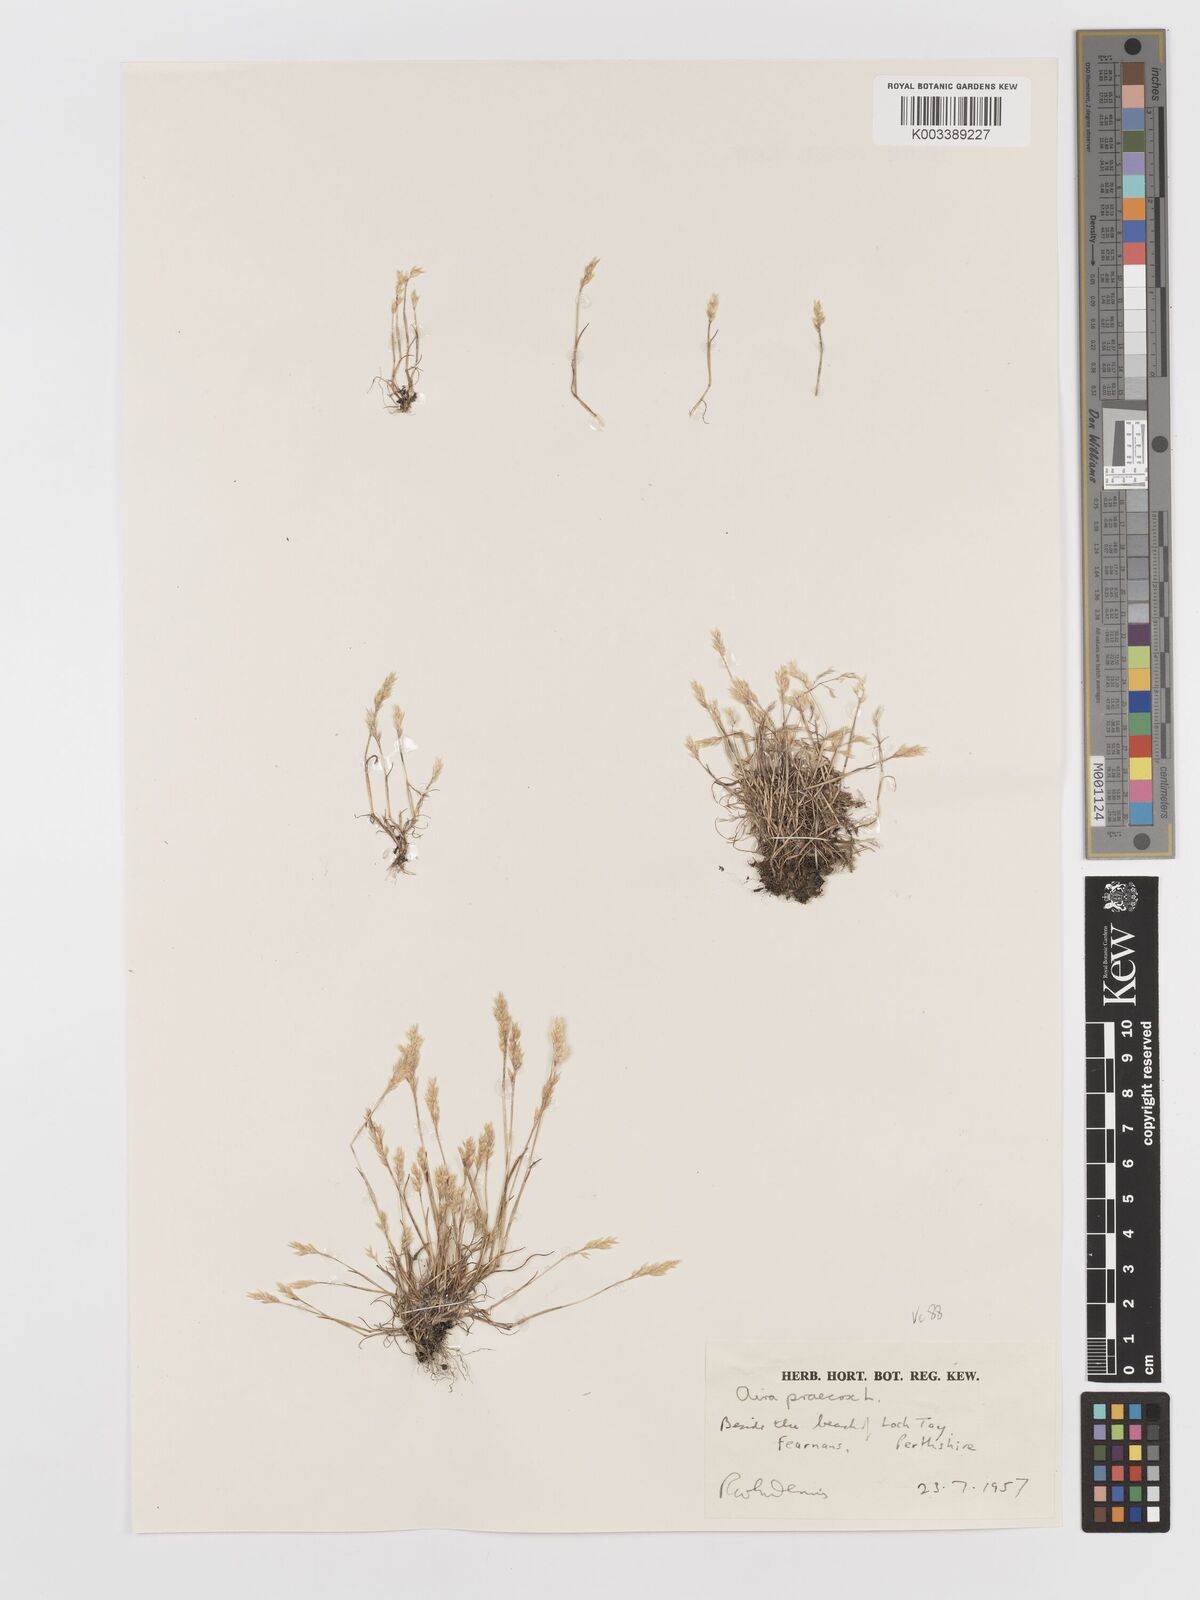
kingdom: Plantae
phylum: Tracheophyta
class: Liliopsida
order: Poales
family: Poaceae
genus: Aira
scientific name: Aira praecox
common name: Early hair-grass
